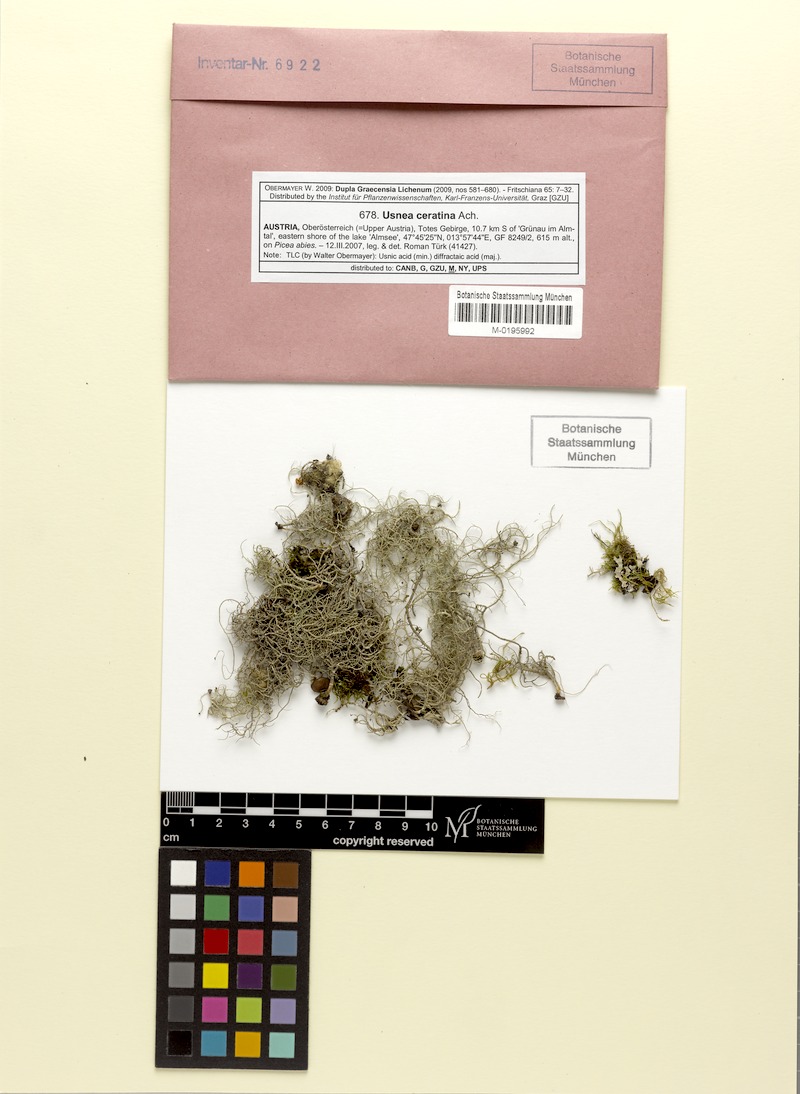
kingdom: Fungi
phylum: Ascomycota
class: Lecanoromycetes
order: Lecanorales
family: Parmeliaceae
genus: Usnea
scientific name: Usnea ceratina
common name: Warty beard lichen
